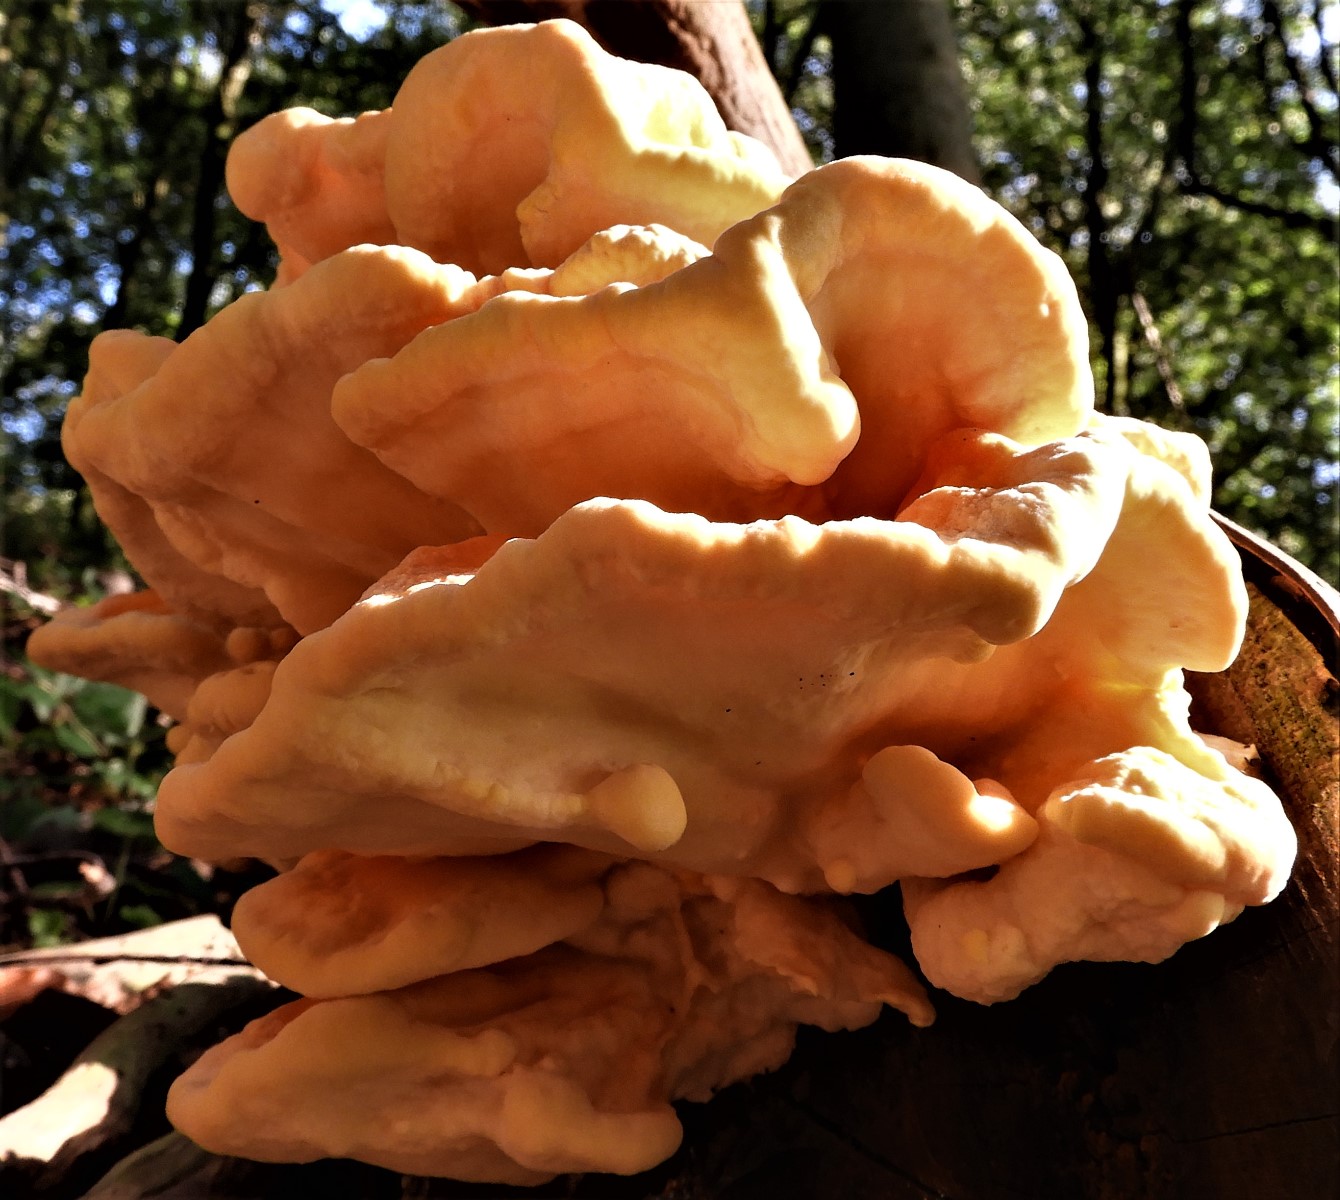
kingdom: Fungi
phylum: Basidiomycota
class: Agaricomycetes
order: Polyporales
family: Laetiporaceae
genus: Laetiporus
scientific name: Laetiporus sulphureus
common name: svovlporesvamp
